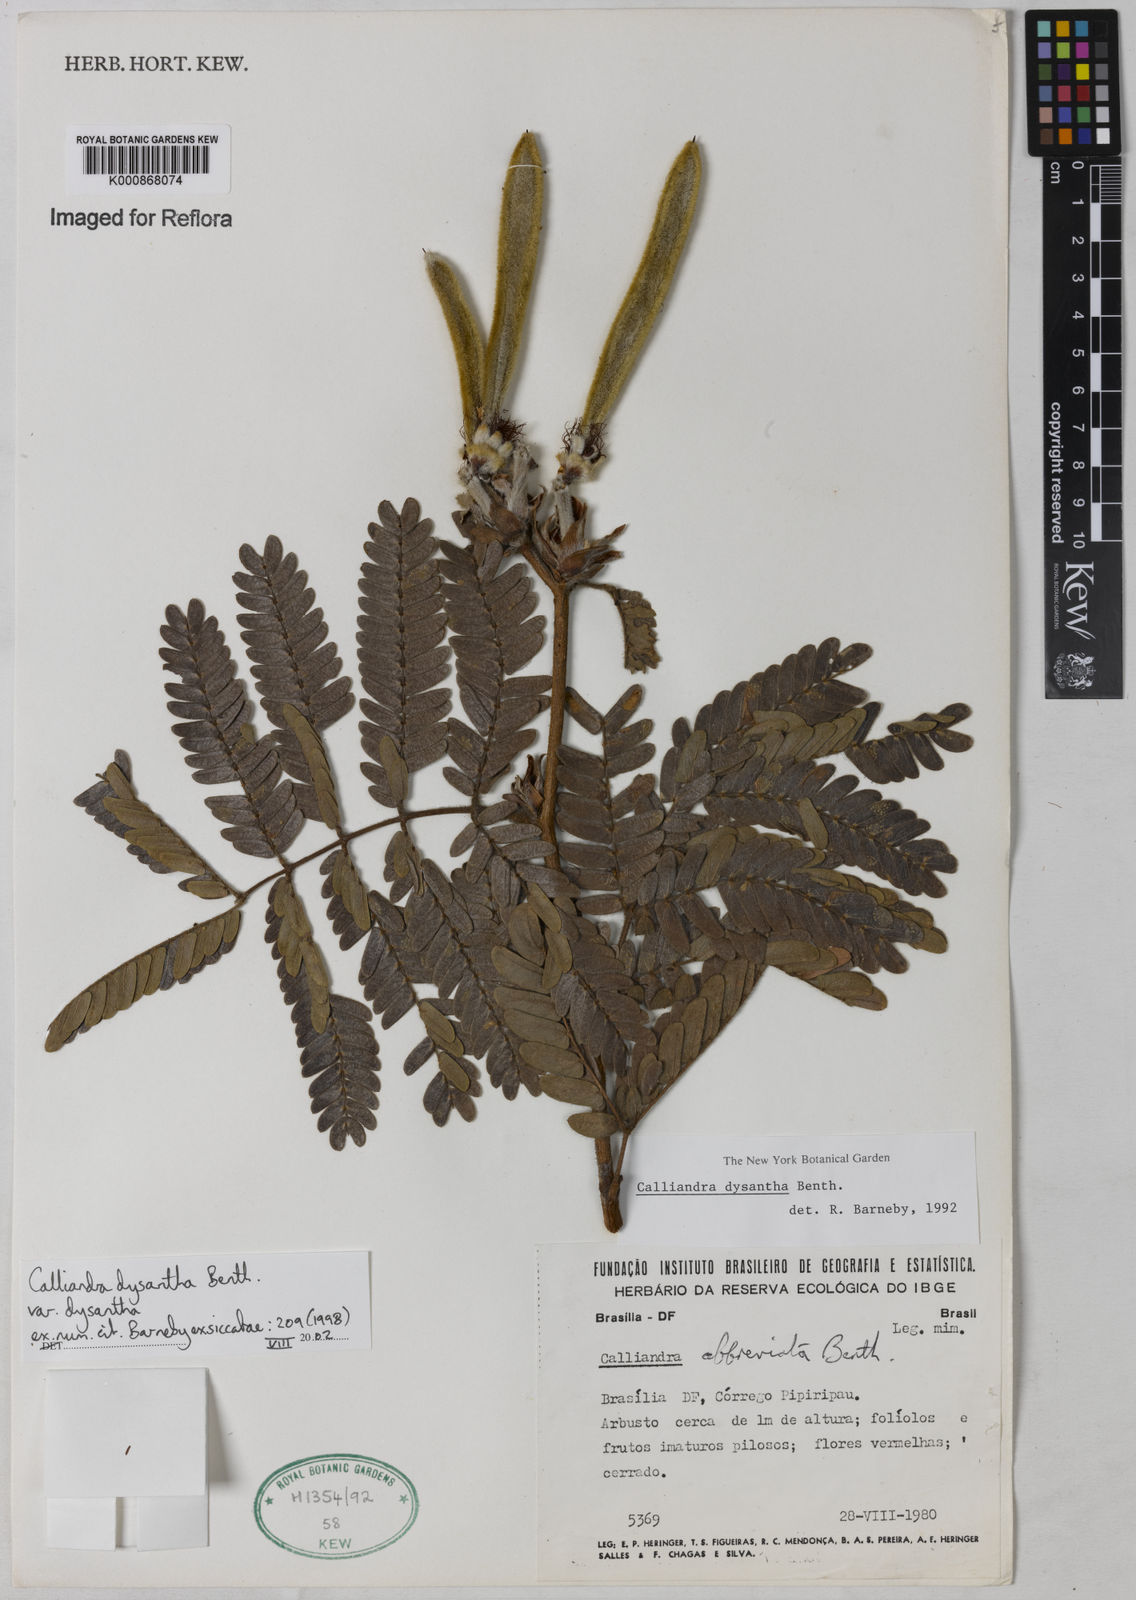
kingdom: Plantae
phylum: Tracheophyta
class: Magnoliopsida
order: Fabales
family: Fabaceae
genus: Calliandra
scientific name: Calliandra dysantha
